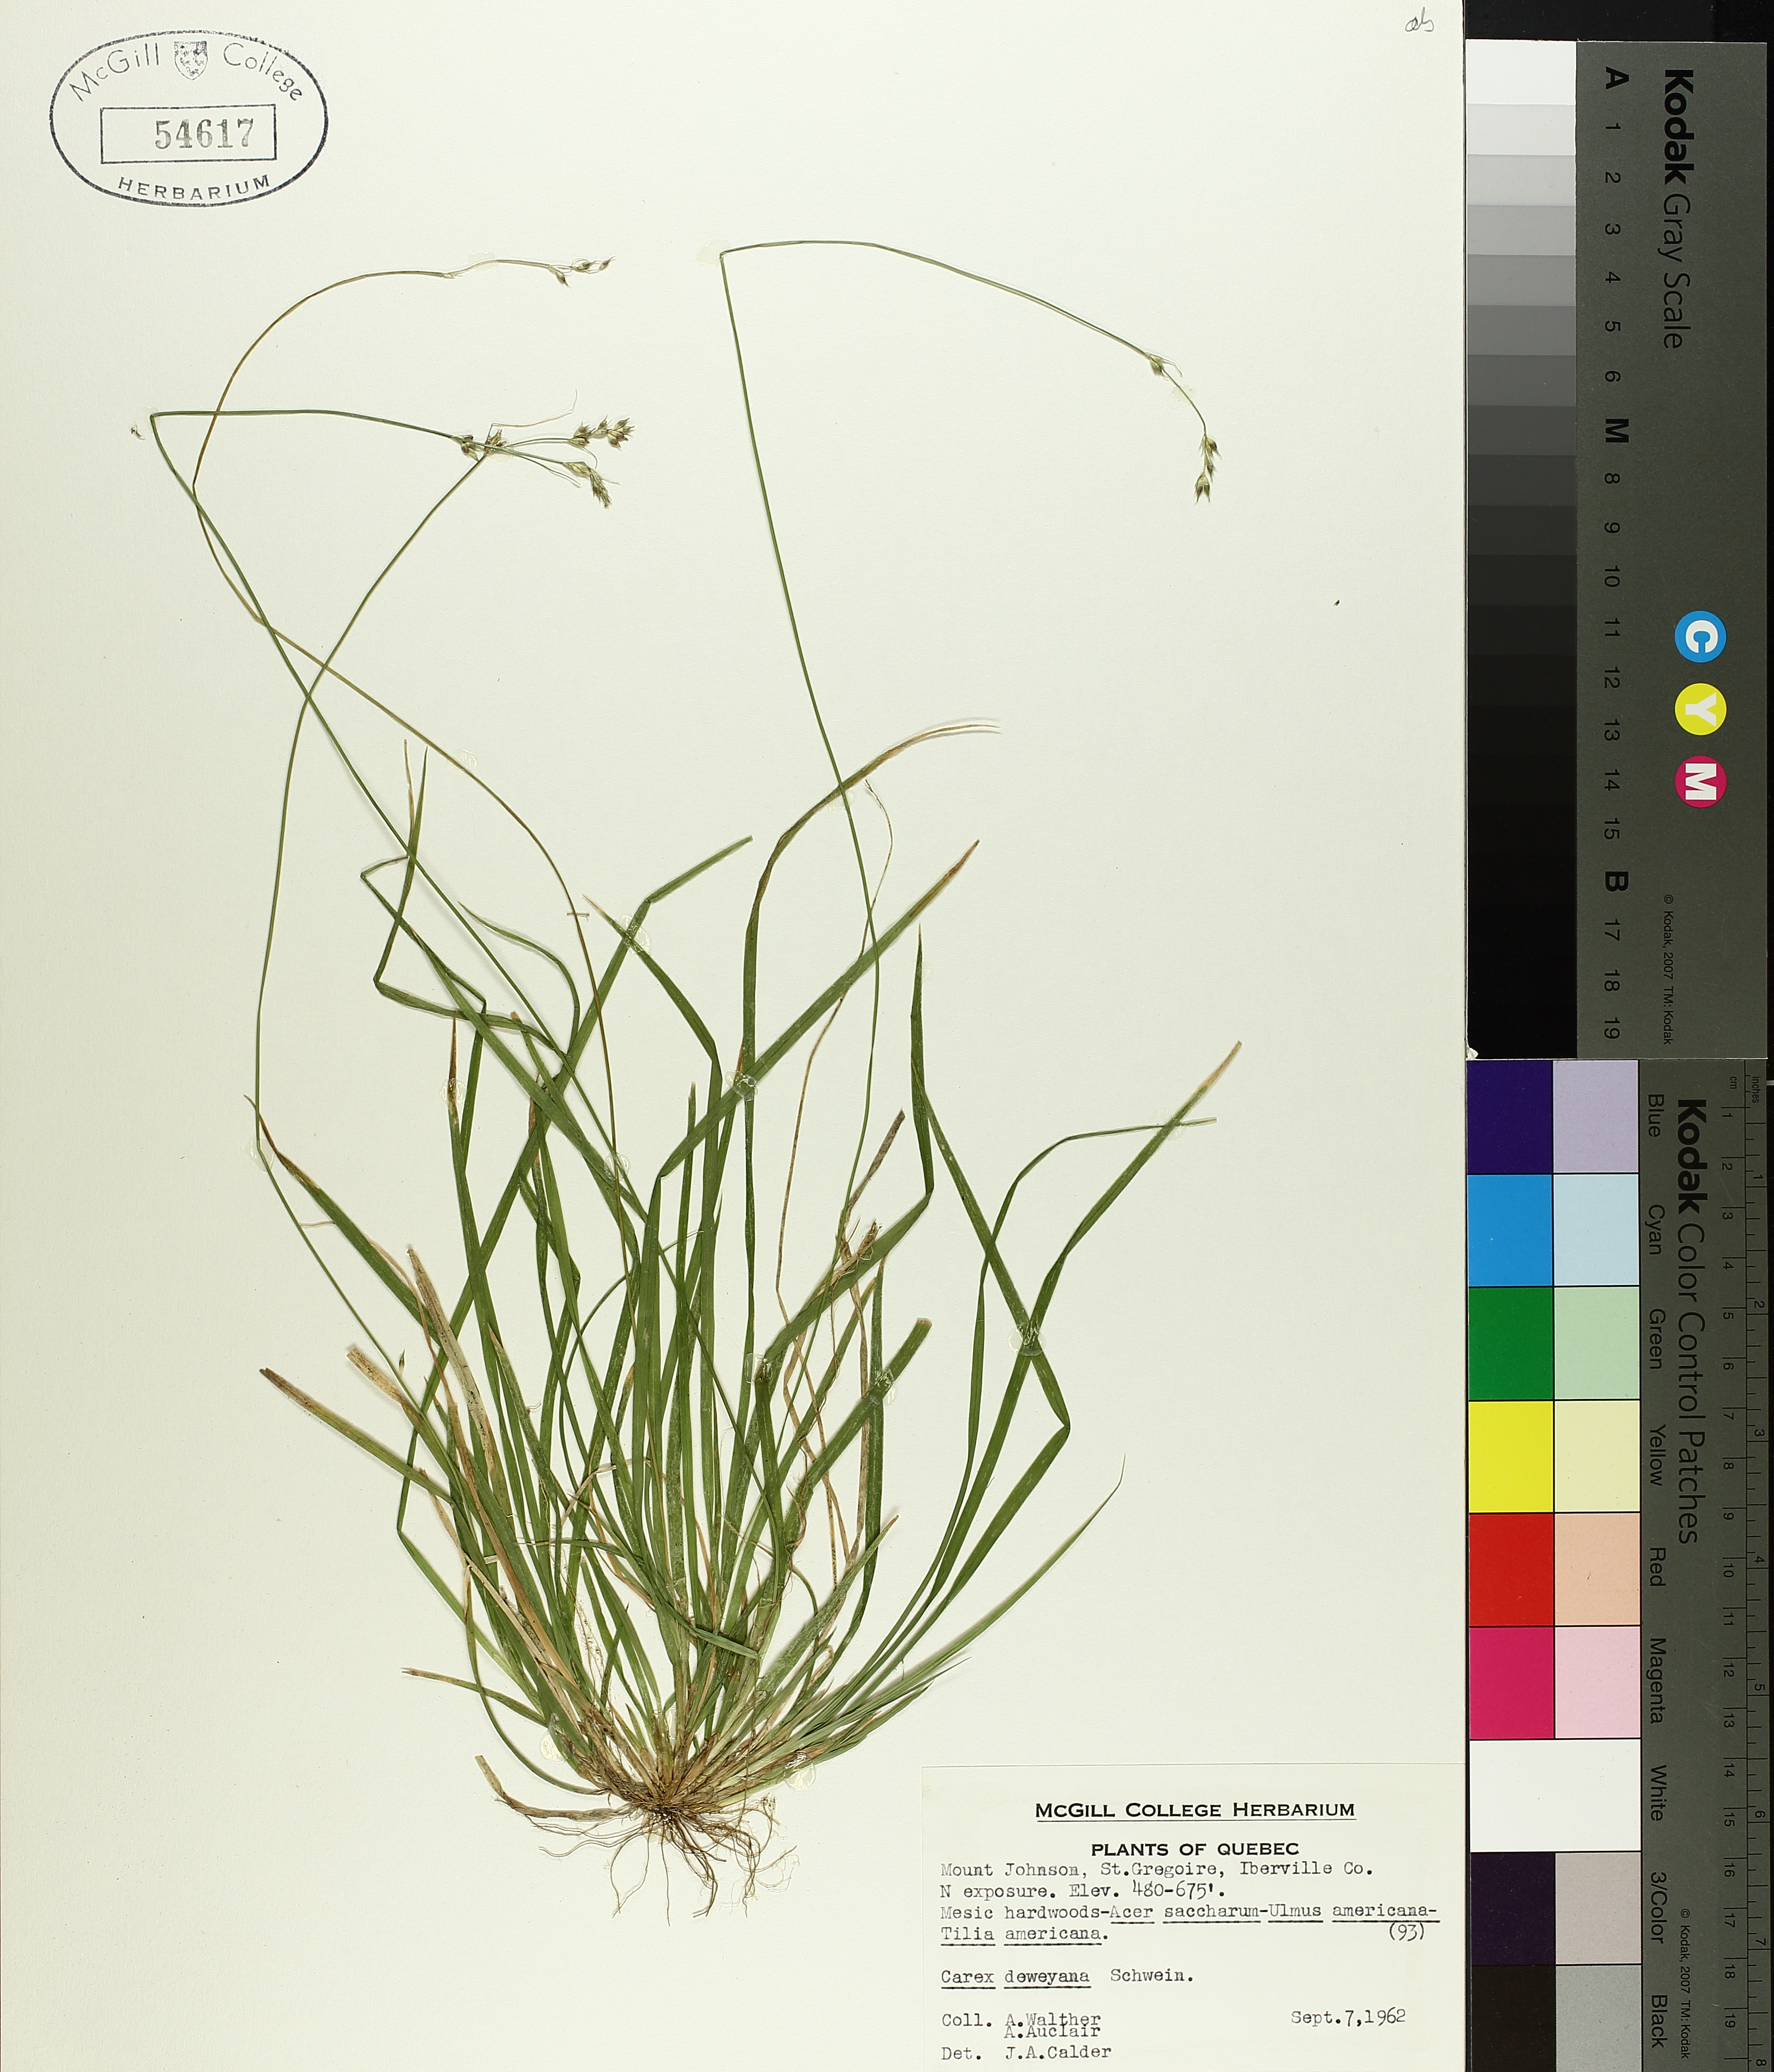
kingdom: Plantae
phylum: Tracheophyta
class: Liliopsida
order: Poales
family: Cyperaceae
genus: Carex
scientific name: Carex deweyana
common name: Dewey's sedge
